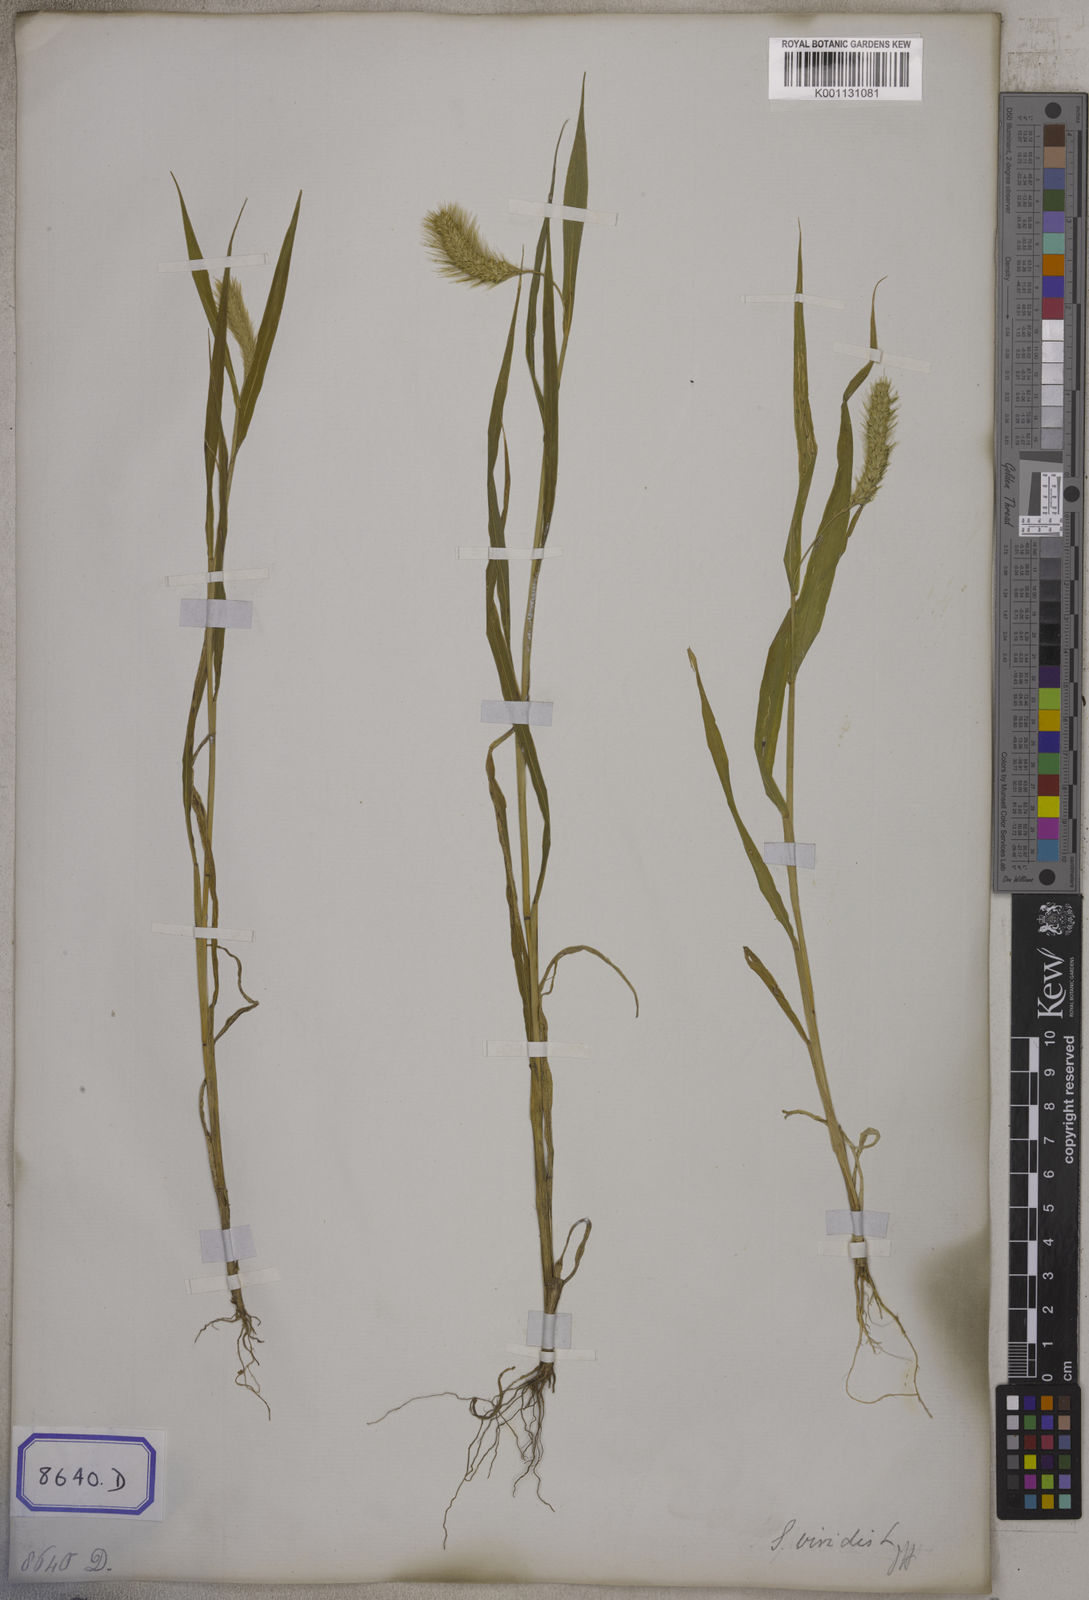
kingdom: Plantae
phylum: Tracheophyta
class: Liliopsida
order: Poales
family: Poaceae
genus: Setaria
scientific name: Setaria pumila
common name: Yellow bristle-grass
